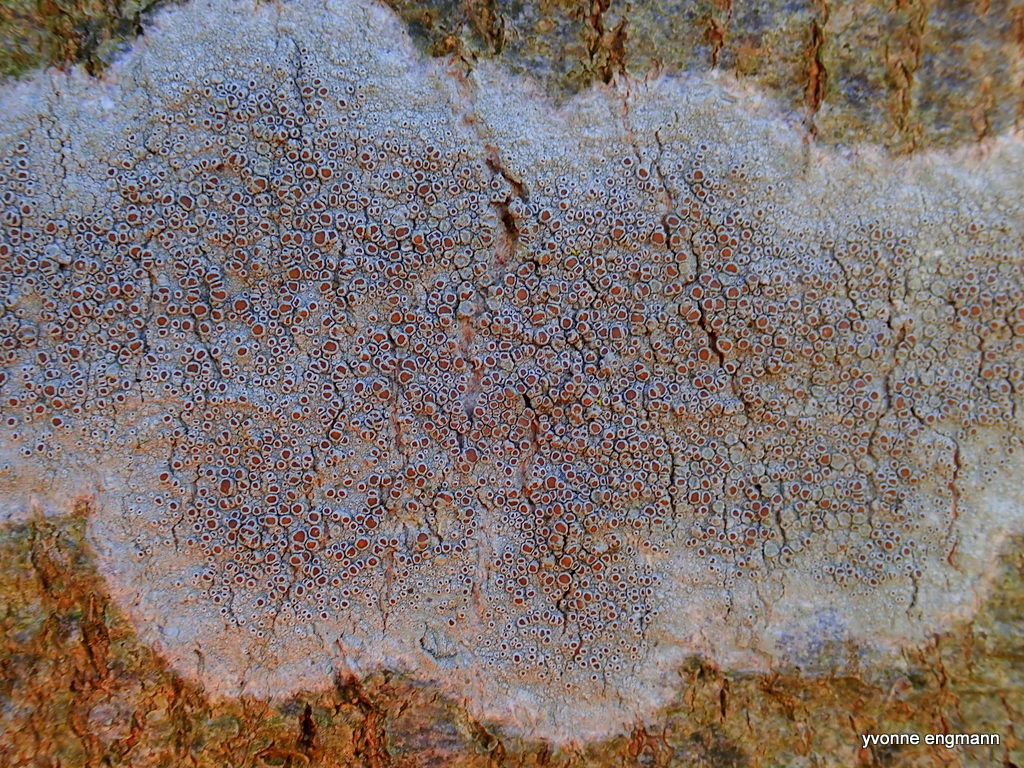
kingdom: Fungi
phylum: Ascomycota
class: Lecanoromycetes
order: Lecanorales
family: Lecanoraceae
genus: Lecanora
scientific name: Lecanora chlarotera
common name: brun kantskivelav
